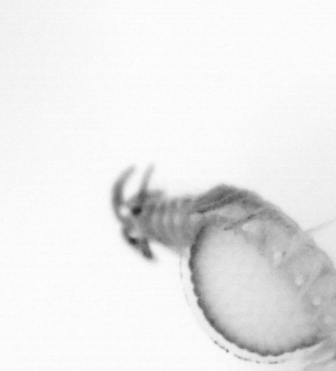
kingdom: Animalia
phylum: Annelida
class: Polychaeta
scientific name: Polychaeta
